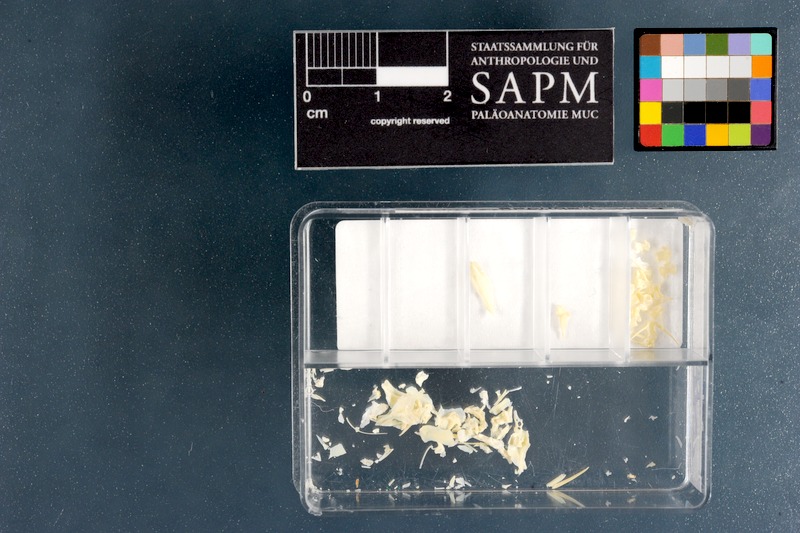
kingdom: Animalia
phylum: Chordata
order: Perciformes
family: Labridae
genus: Stethojulis
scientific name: Stethojulis interrupta
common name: Cutribbon wrasse
